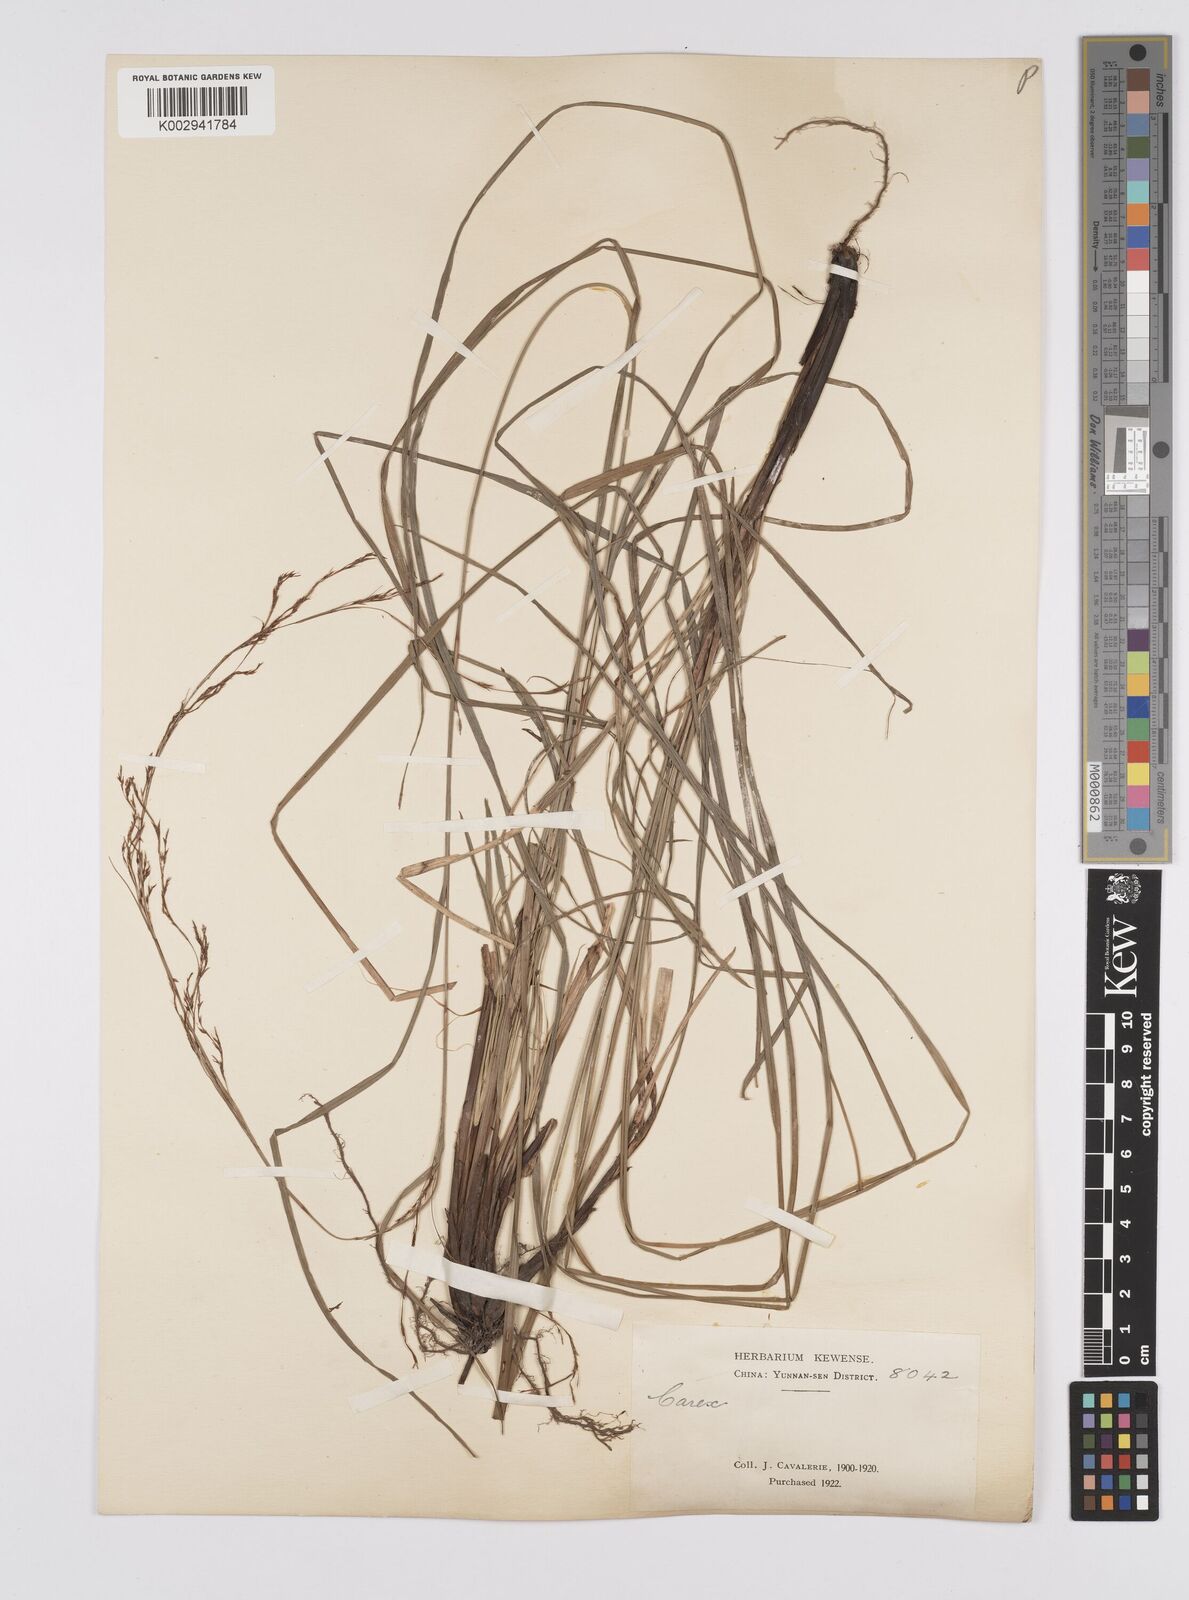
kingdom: Plantae
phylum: Tracheophyta
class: Liliopsida
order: Poales
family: Cyperaceae
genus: Carex
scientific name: Carex brunnea
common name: Greater brown sedge
